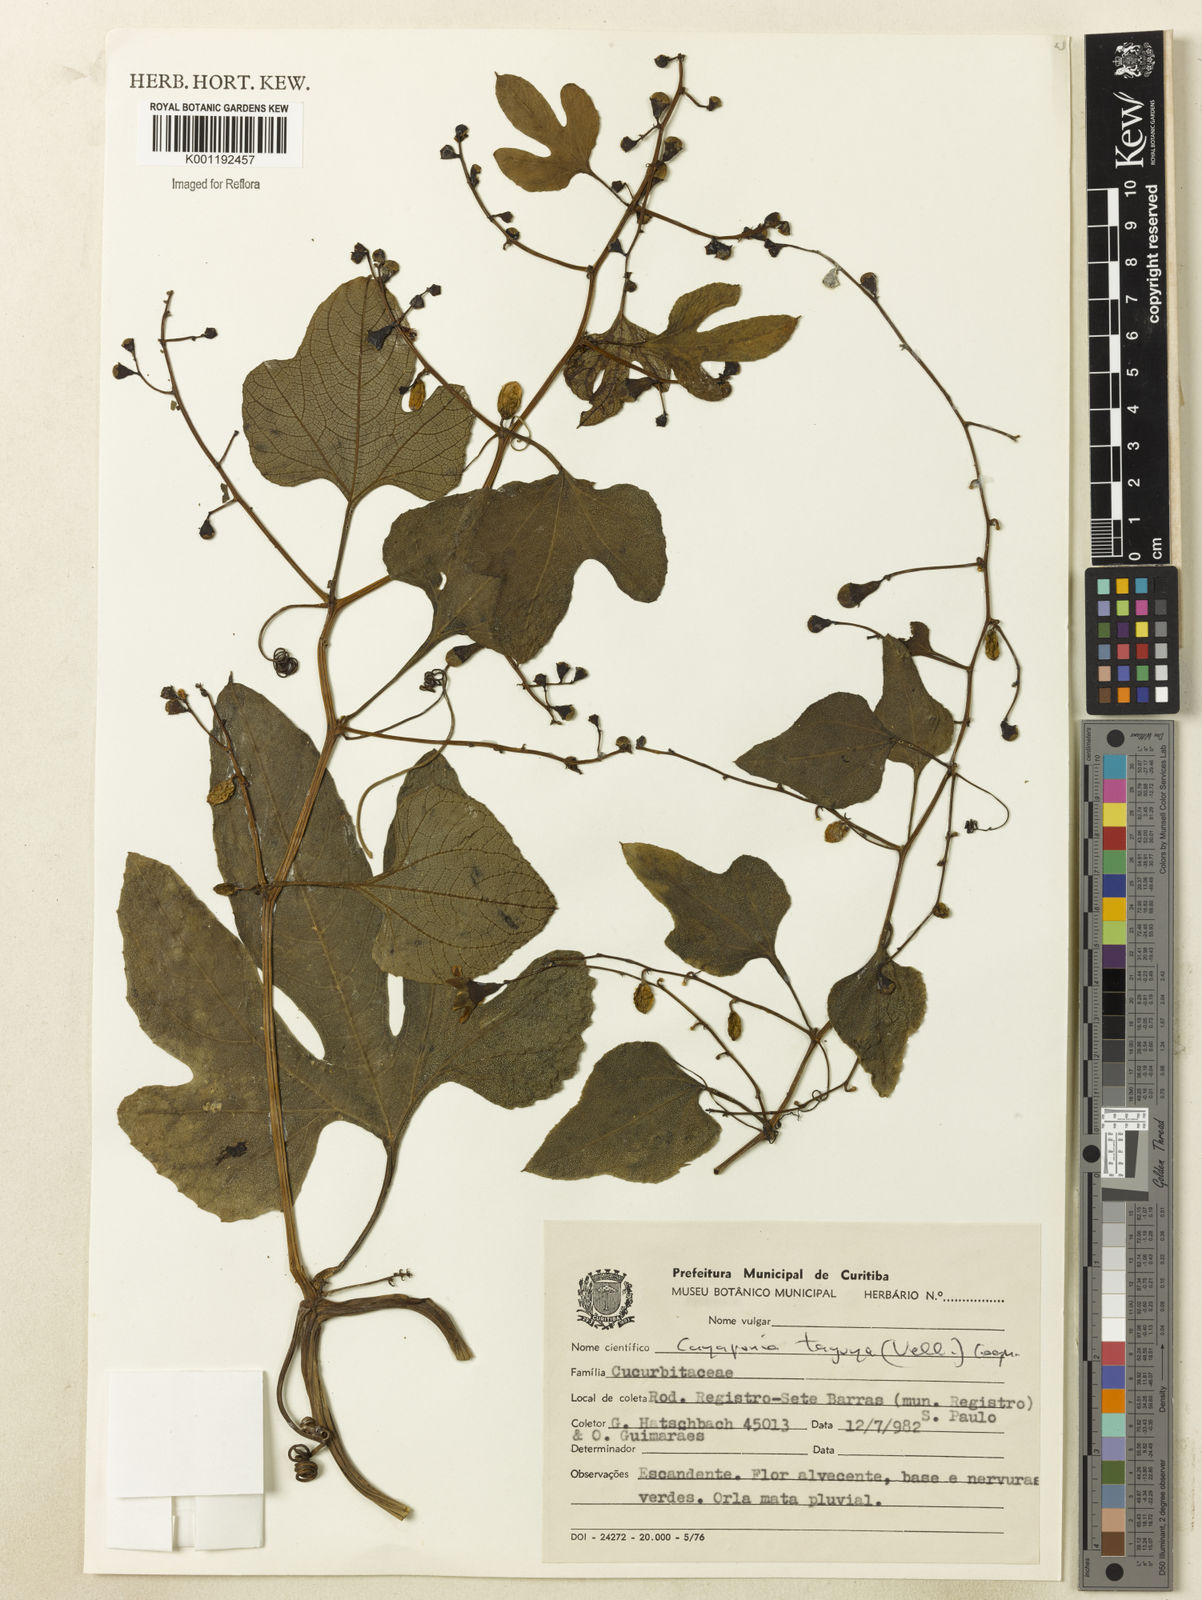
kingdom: Plantae
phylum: Tracheophyta
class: Magnoliopsida
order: Cucurbitales
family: Cucurbitaceae
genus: Cayaponia
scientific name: Cayaponia tayuya
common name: Tayuya
